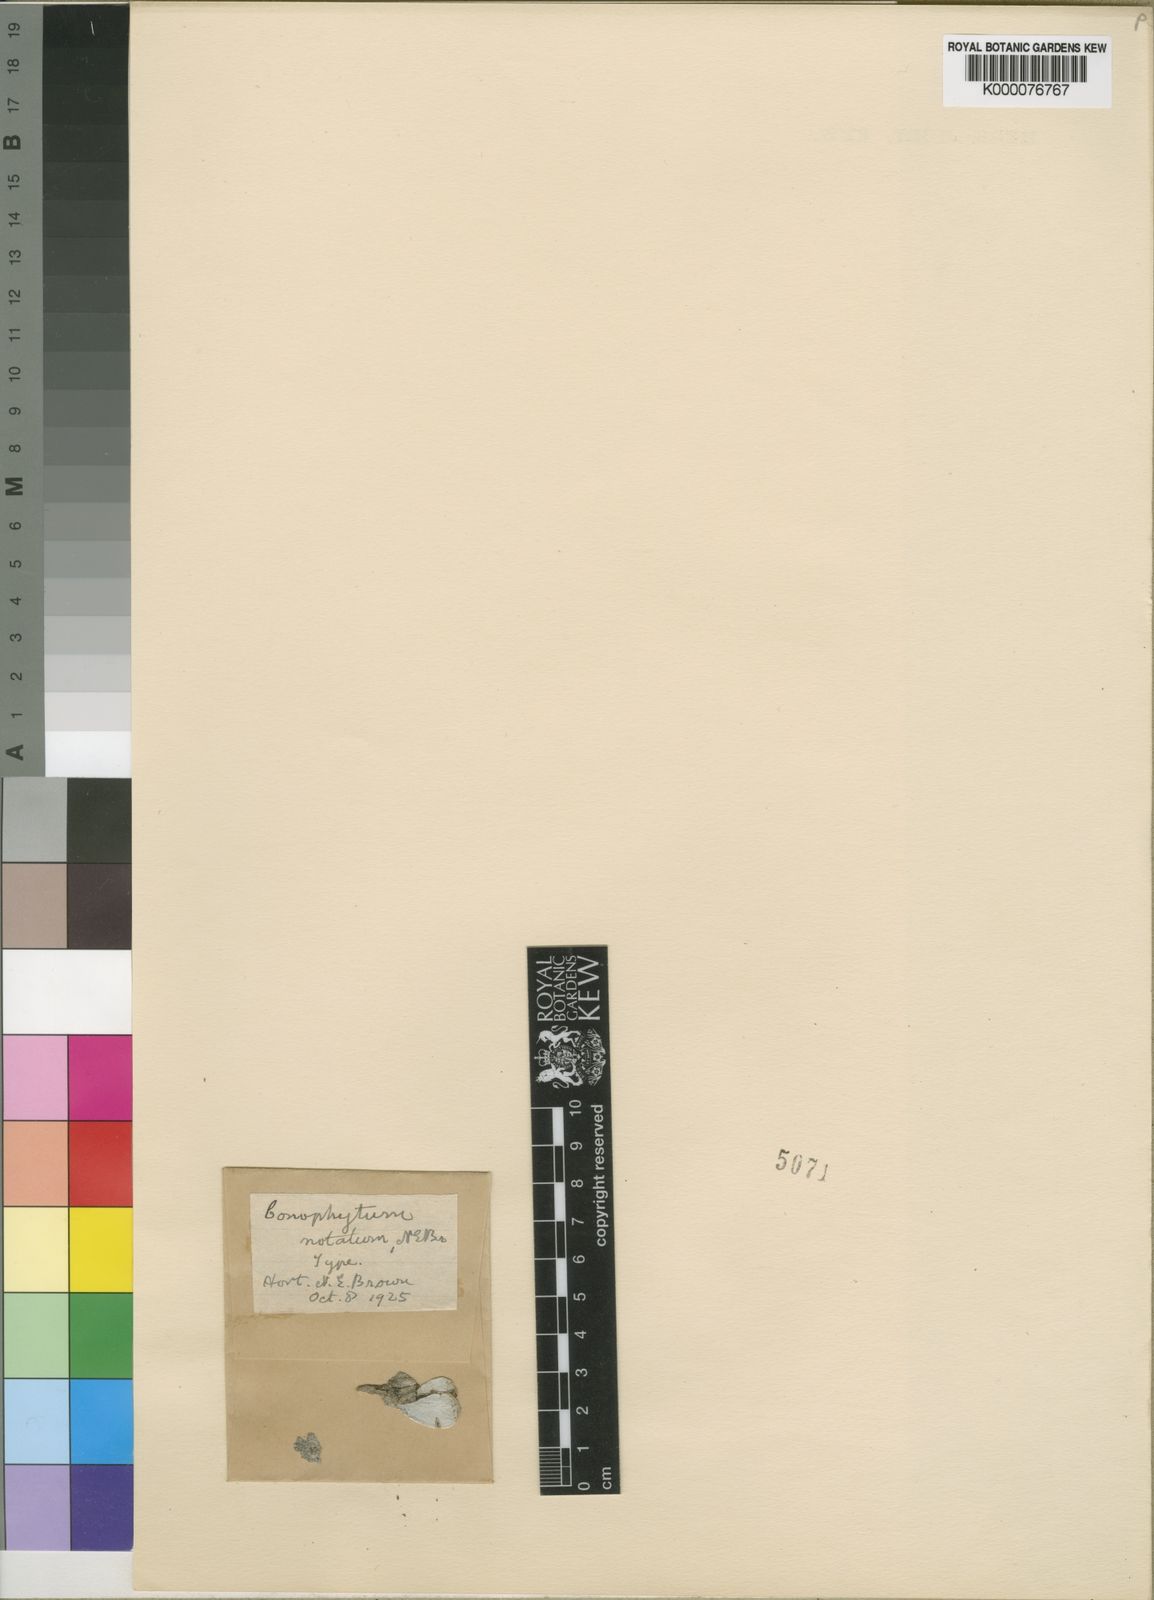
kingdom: Plantae
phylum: Tracheophyta
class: Magnoliopsida
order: Caryophyllales
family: Aizoaceae
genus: Conophytum
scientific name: Conophytum minimum
